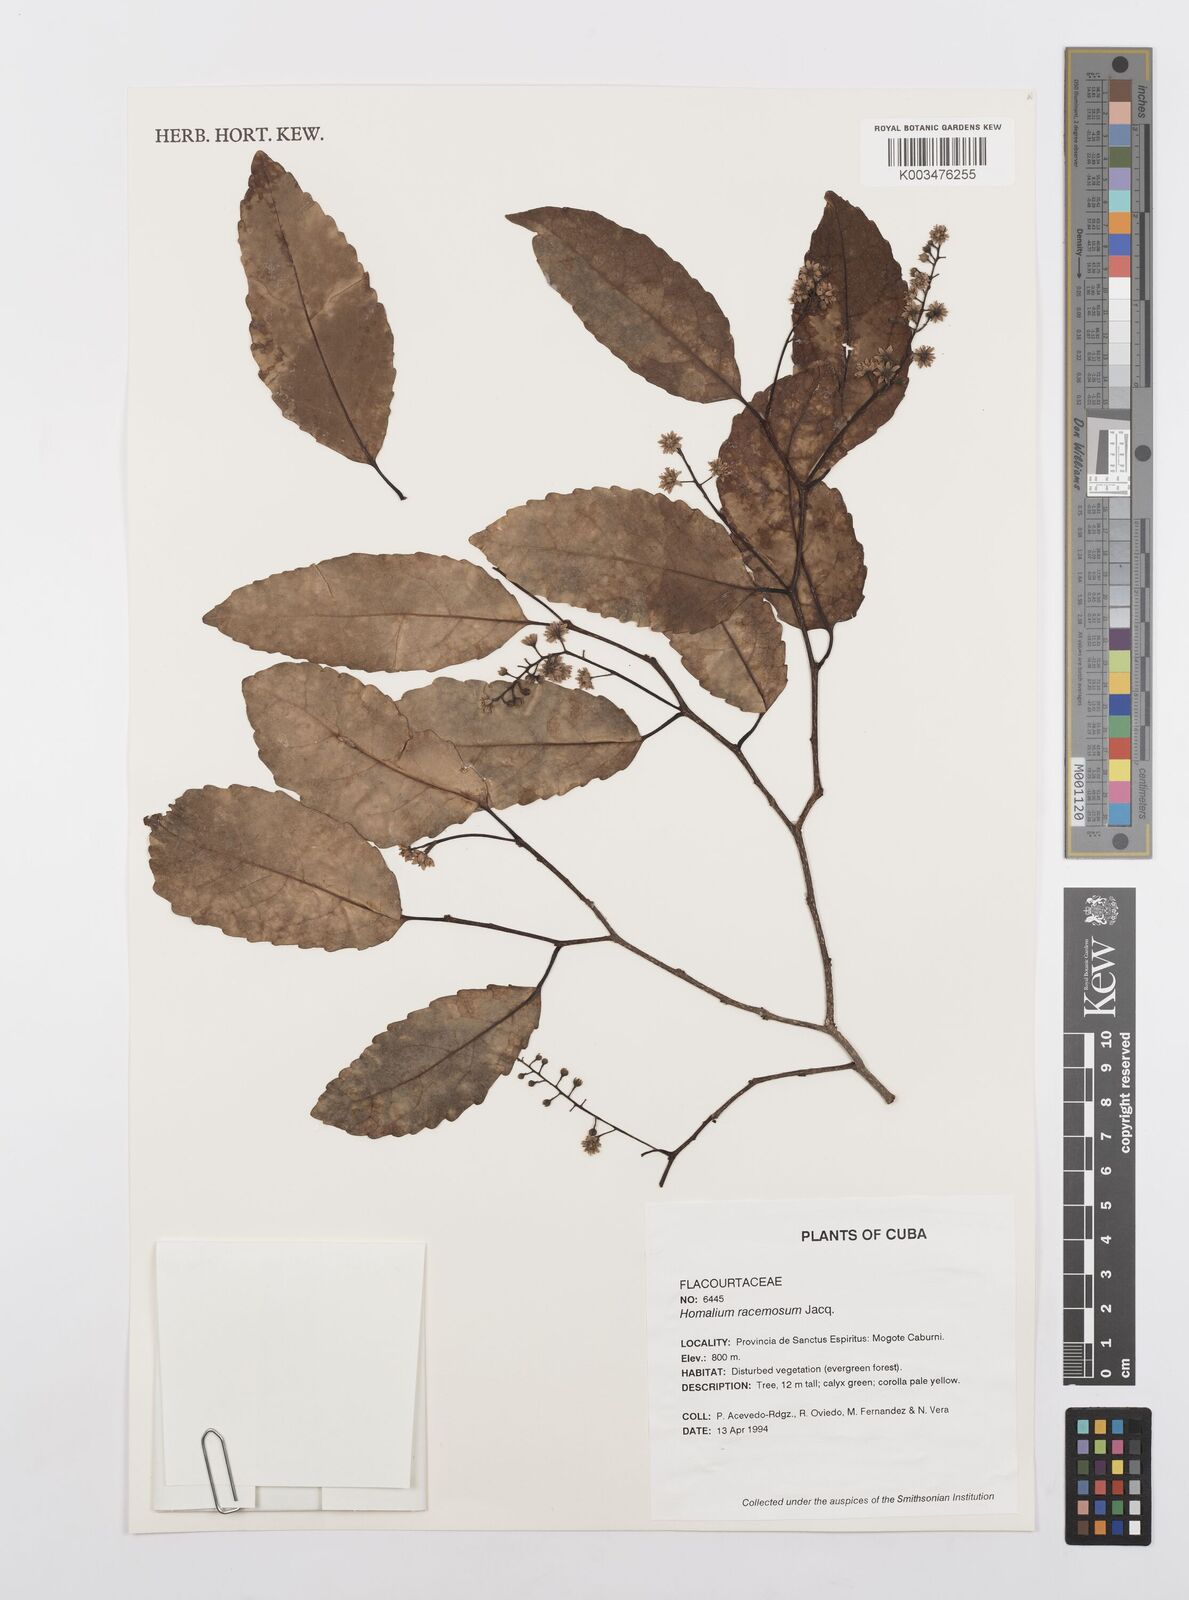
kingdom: Plantae
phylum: Tracheophyta
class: Magnoliopsida
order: Malpighiales
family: Salicaceae
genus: Homalium
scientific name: Homalium racemosum
